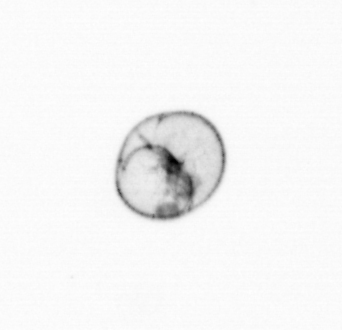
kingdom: Chromista
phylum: Myzozoa
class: Dinophyceae
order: Noctilucales
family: Noctilucaceae
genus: Noctiluca
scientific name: Noctiluca scintillans
